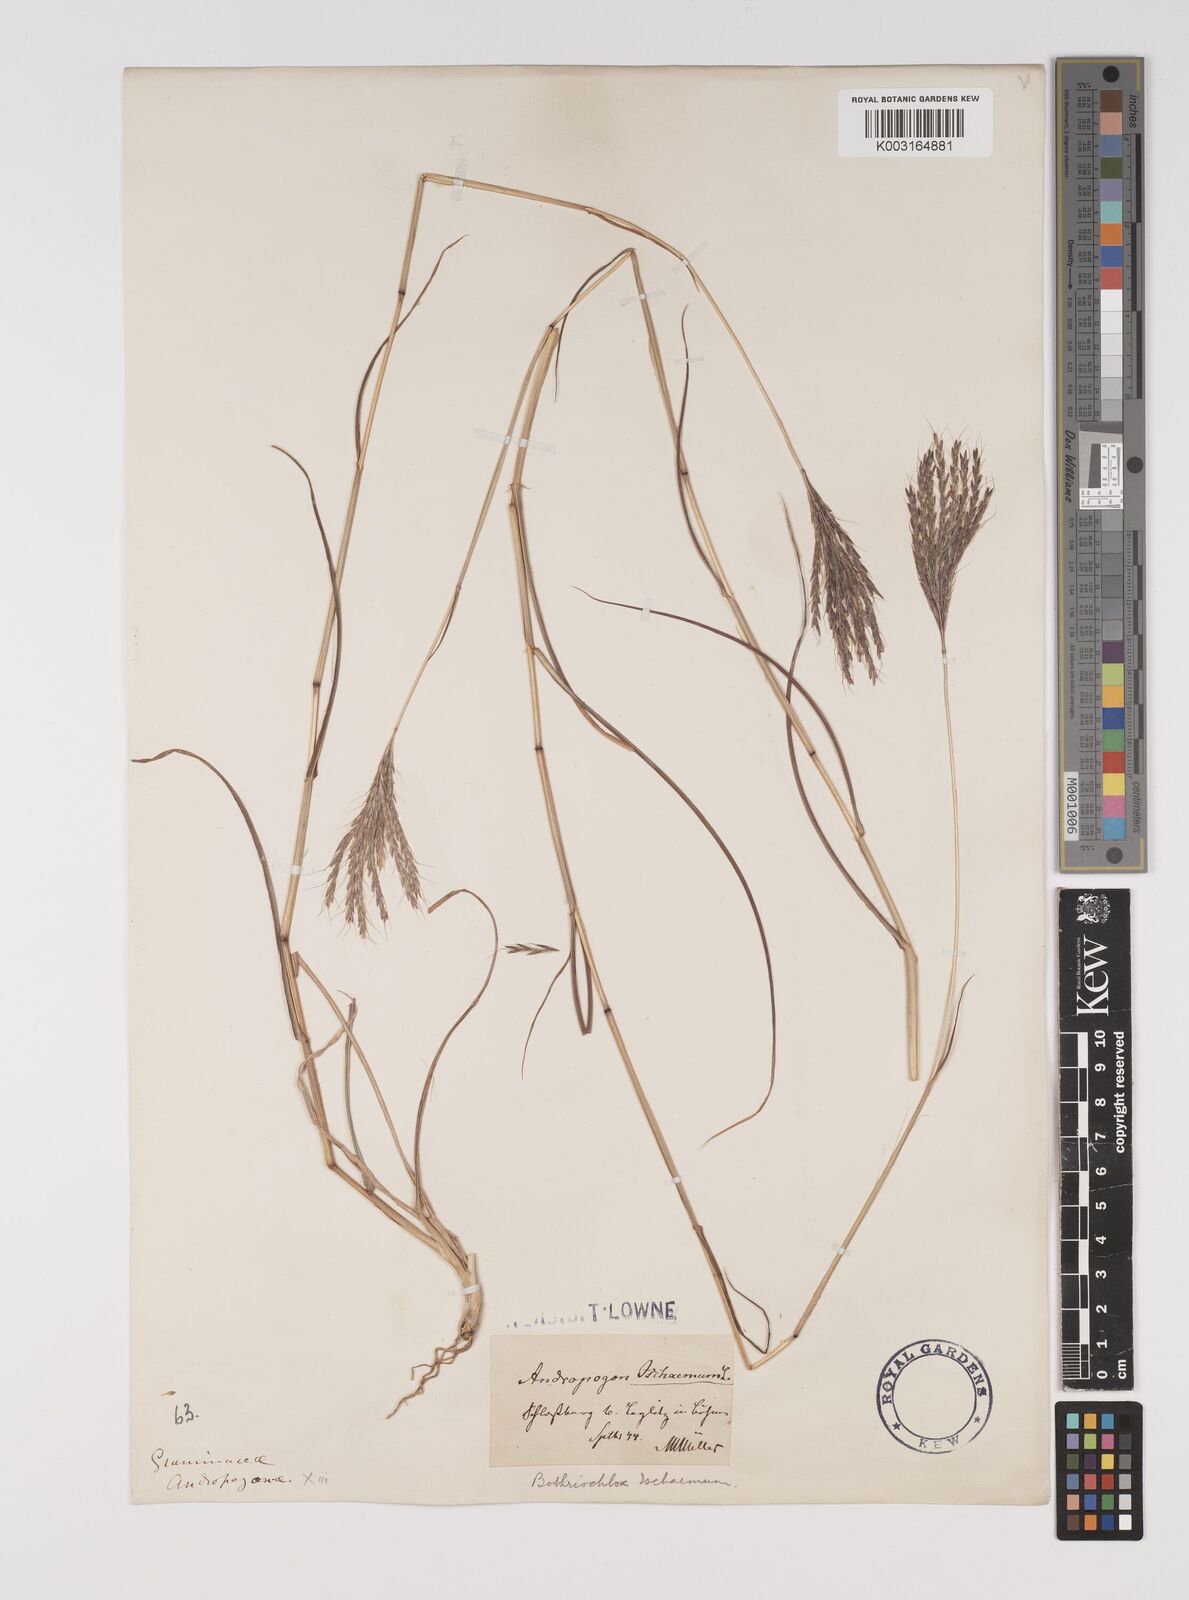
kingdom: Plantae
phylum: Tracheophyta
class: Liliopsida
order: Poales
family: Poaceae
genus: Bothriochloa
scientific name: Bothriochloa ischaemum
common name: Yellow bluestem
